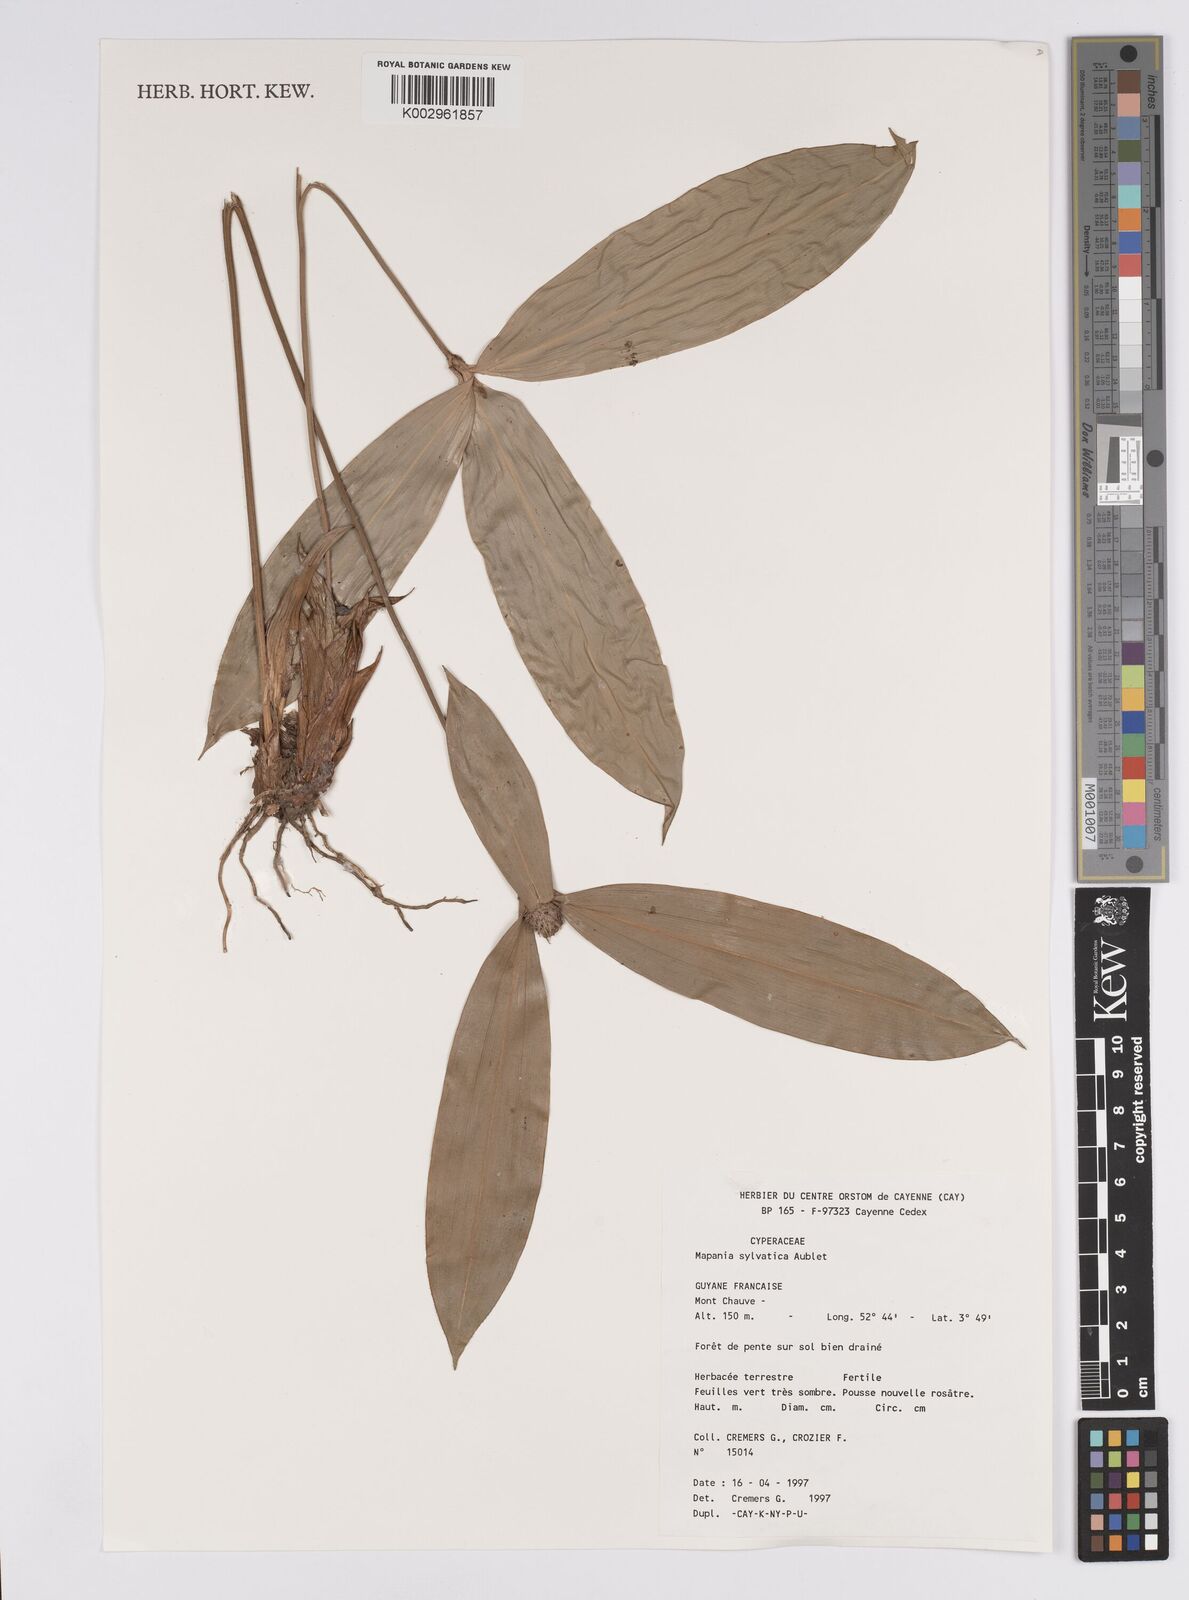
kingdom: Plantae
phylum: Tracheophyta
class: Liliopsida
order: Poales
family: Cyperaceae
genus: Mapania
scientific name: Mapania sylvatica
